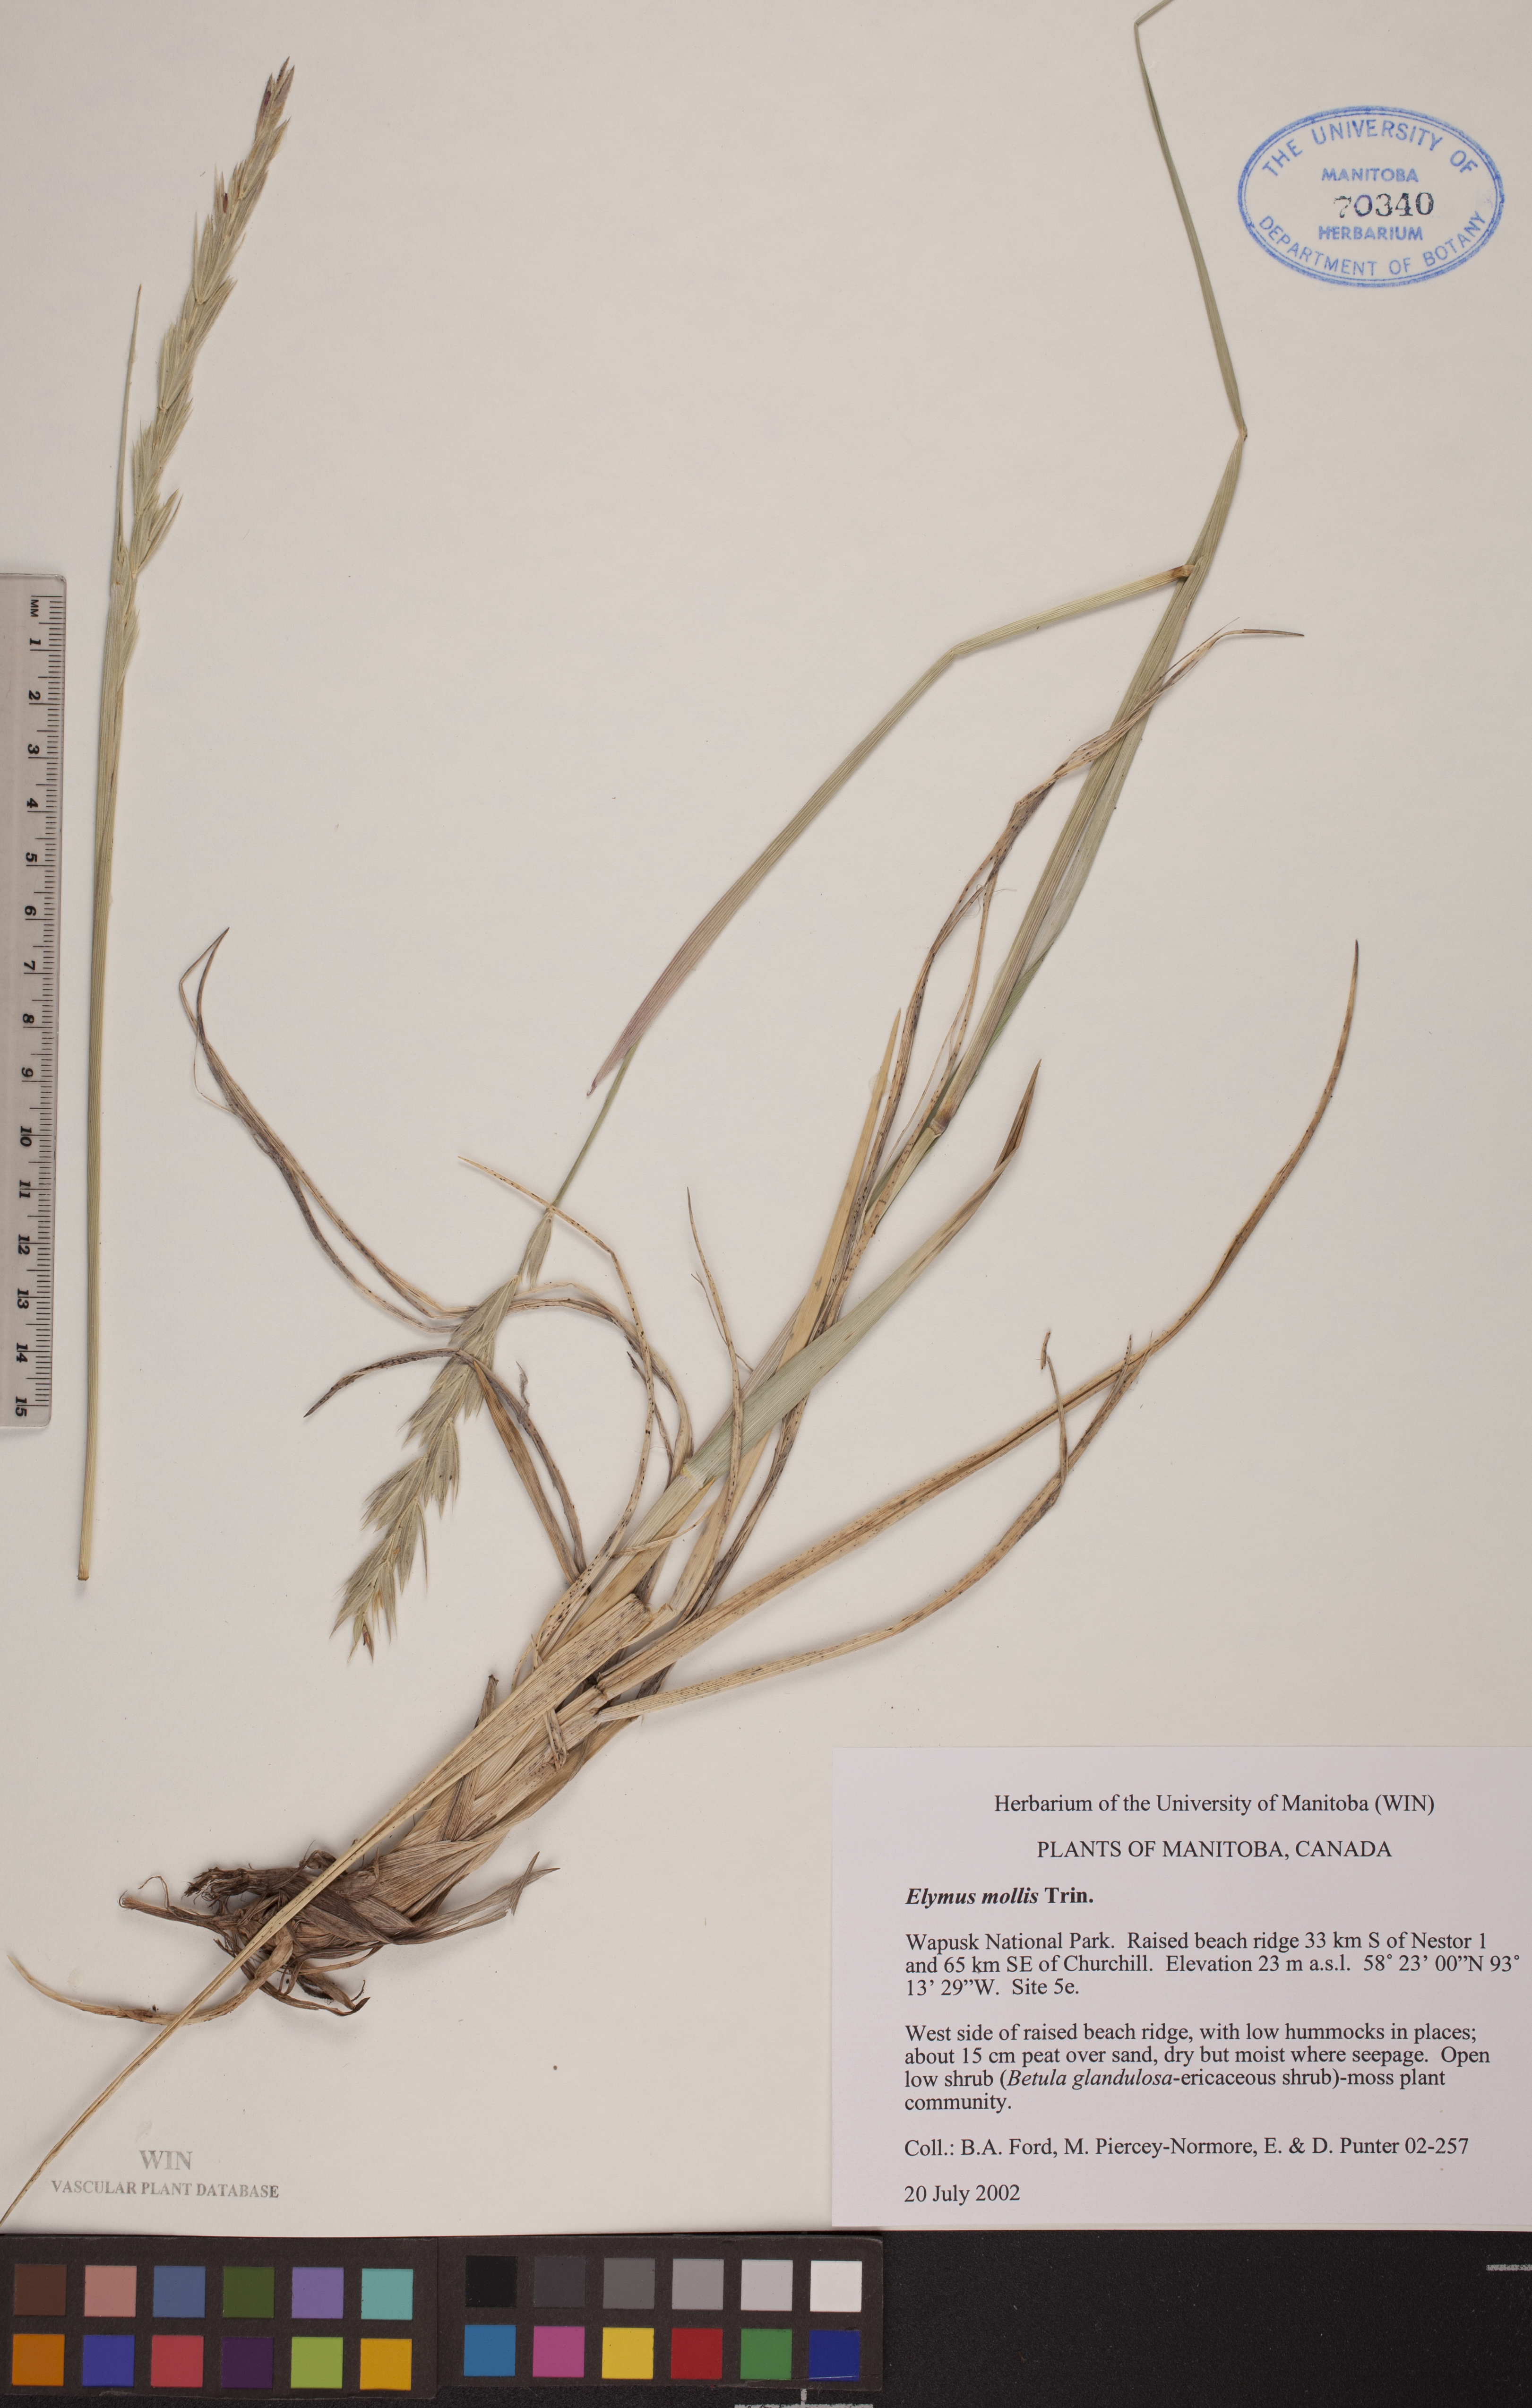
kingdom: Plantae
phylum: Tracheophyta
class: Liliopsida
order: Poales
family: Poaceae
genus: Leymus
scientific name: Leymus mollis
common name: American dune grass
